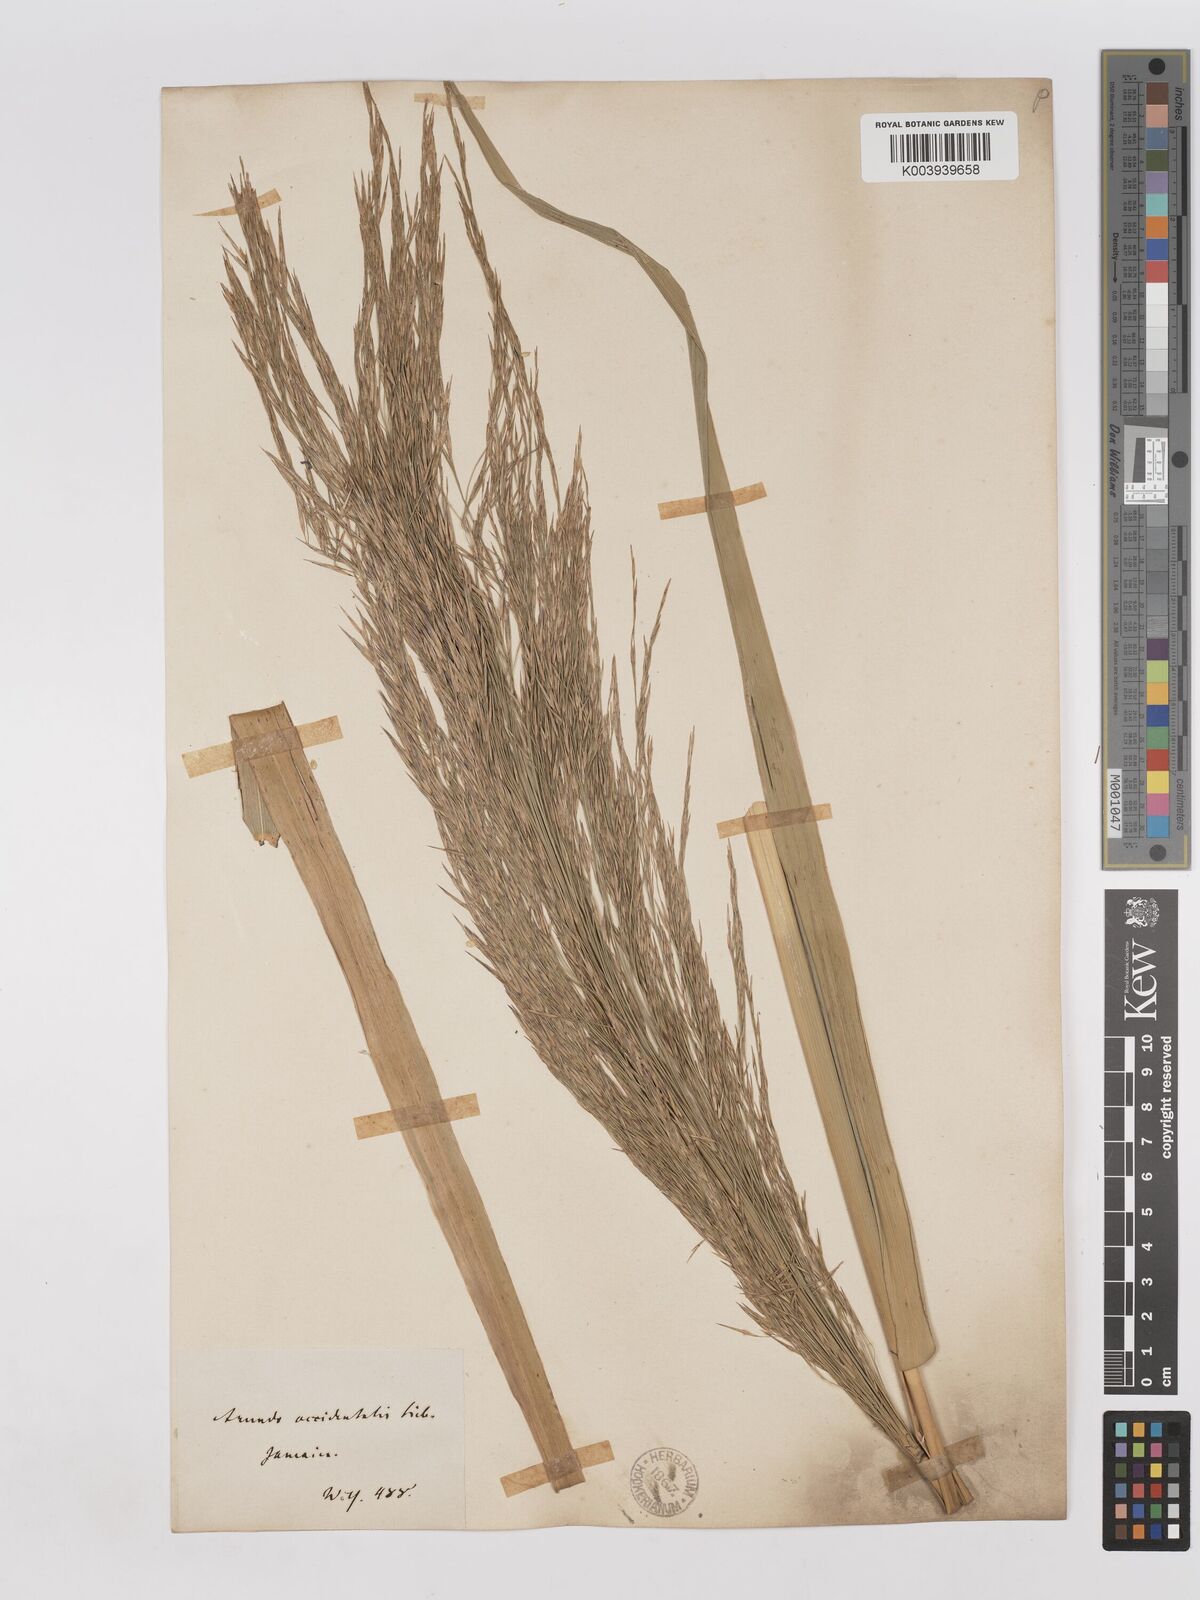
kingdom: Plantae
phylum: Tracheophyta
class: Liliopsida
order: Poales
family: Poaceae
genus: Phragmites
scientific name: Phragmites australis
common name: Common reed
